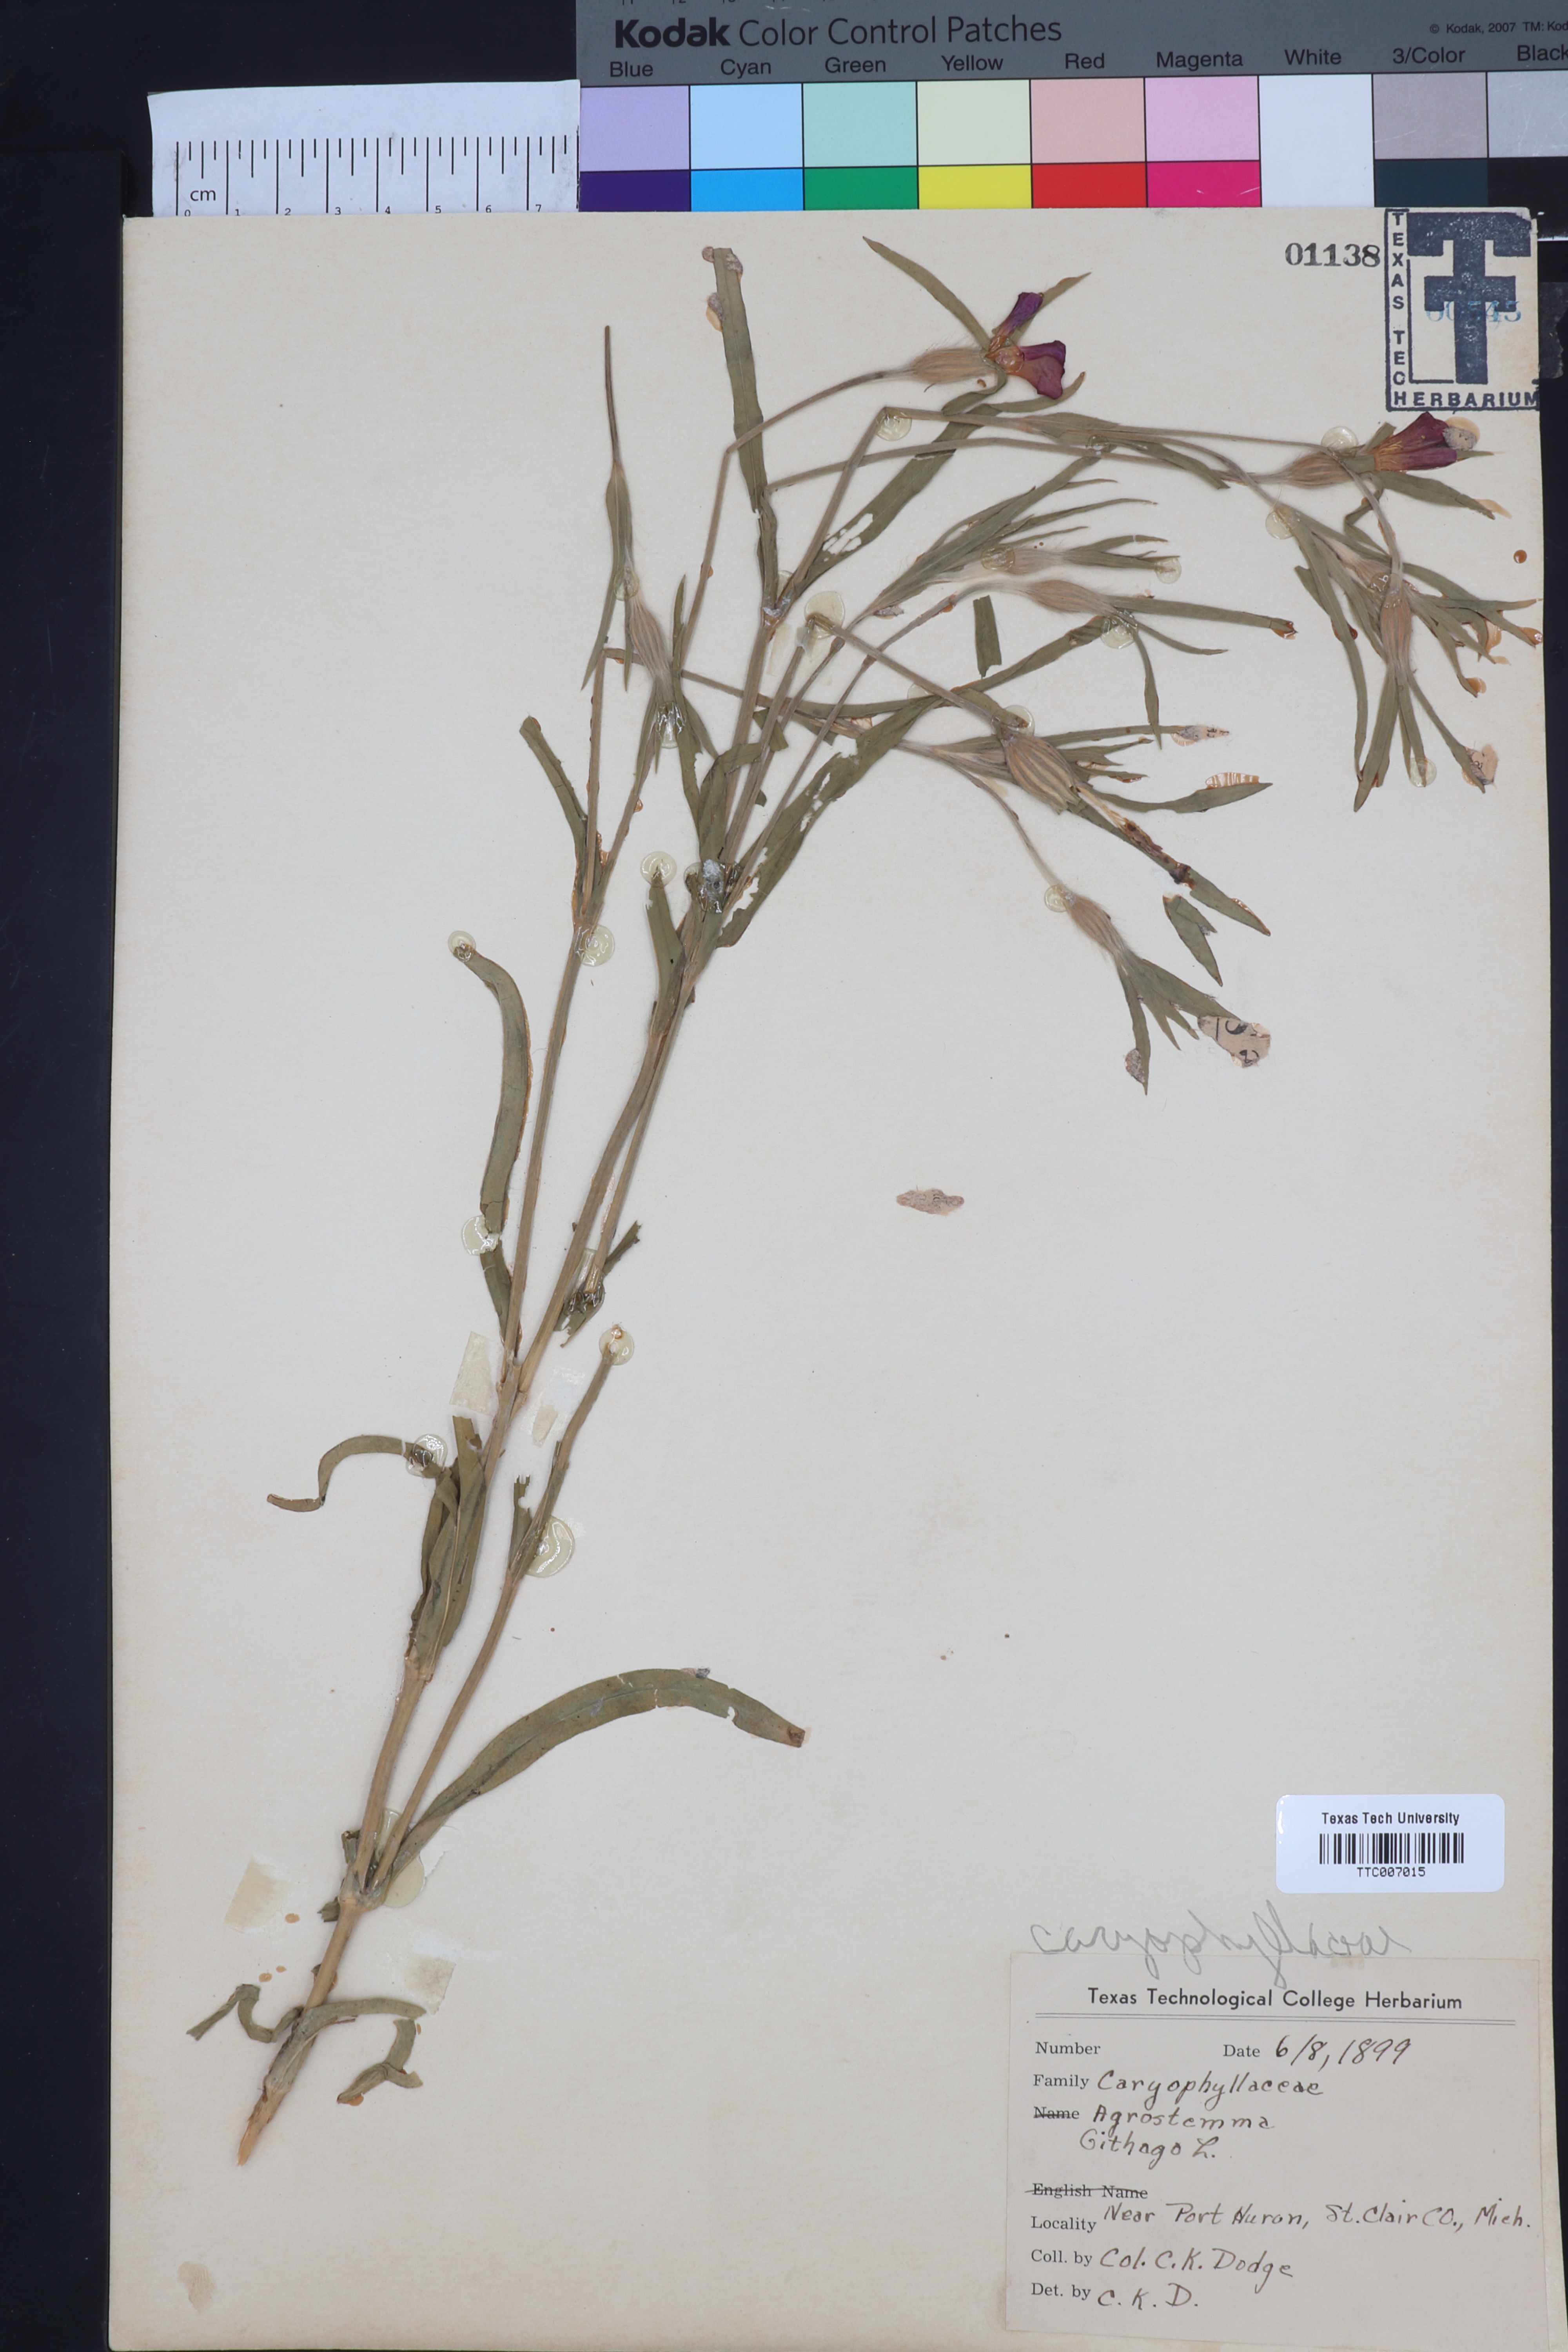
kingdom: Plantae
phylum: Tracheophyta
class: Magnoliopsida
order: Caryophyllales
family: Caryophyllaceae
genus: Agrostemma
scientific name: Agrostemma githago
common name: Common corncockle
